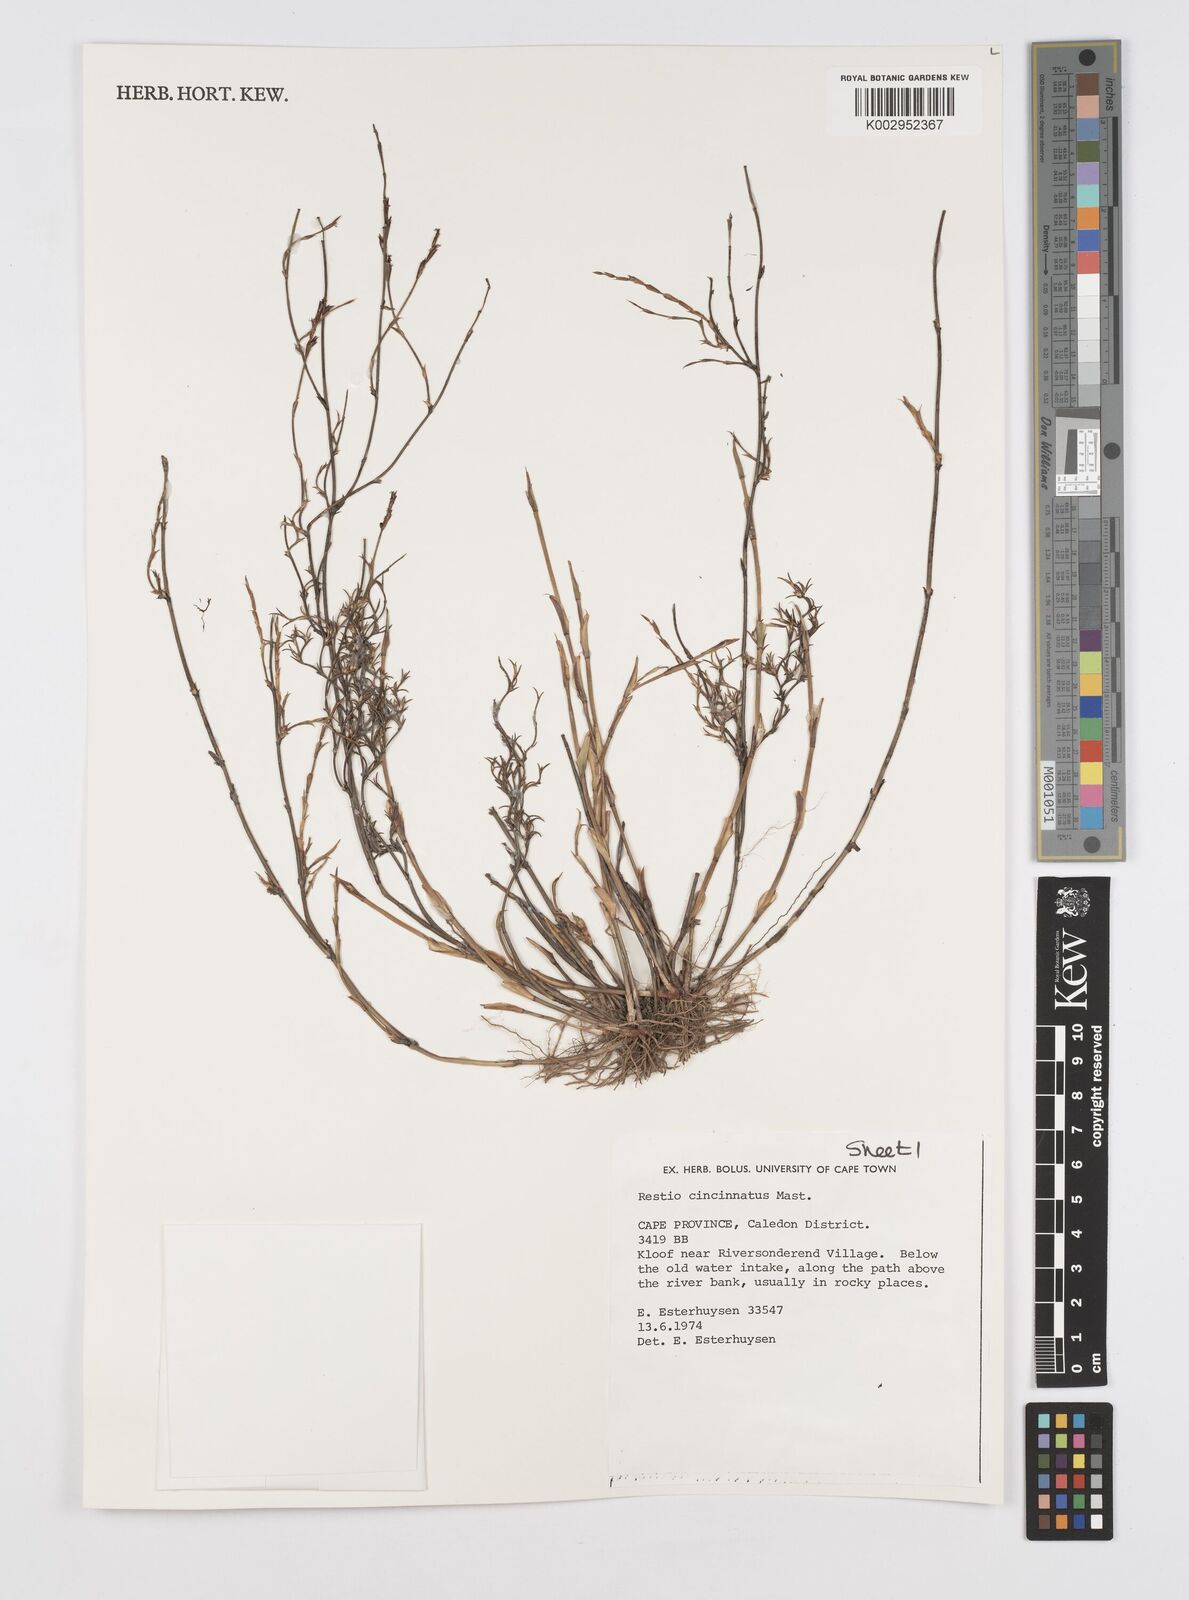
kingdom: Plantae
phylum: Tracheophyta
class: Liliopsida
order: Poales
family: Restionaceae
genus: Restio
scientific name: Restio cincinnatus
